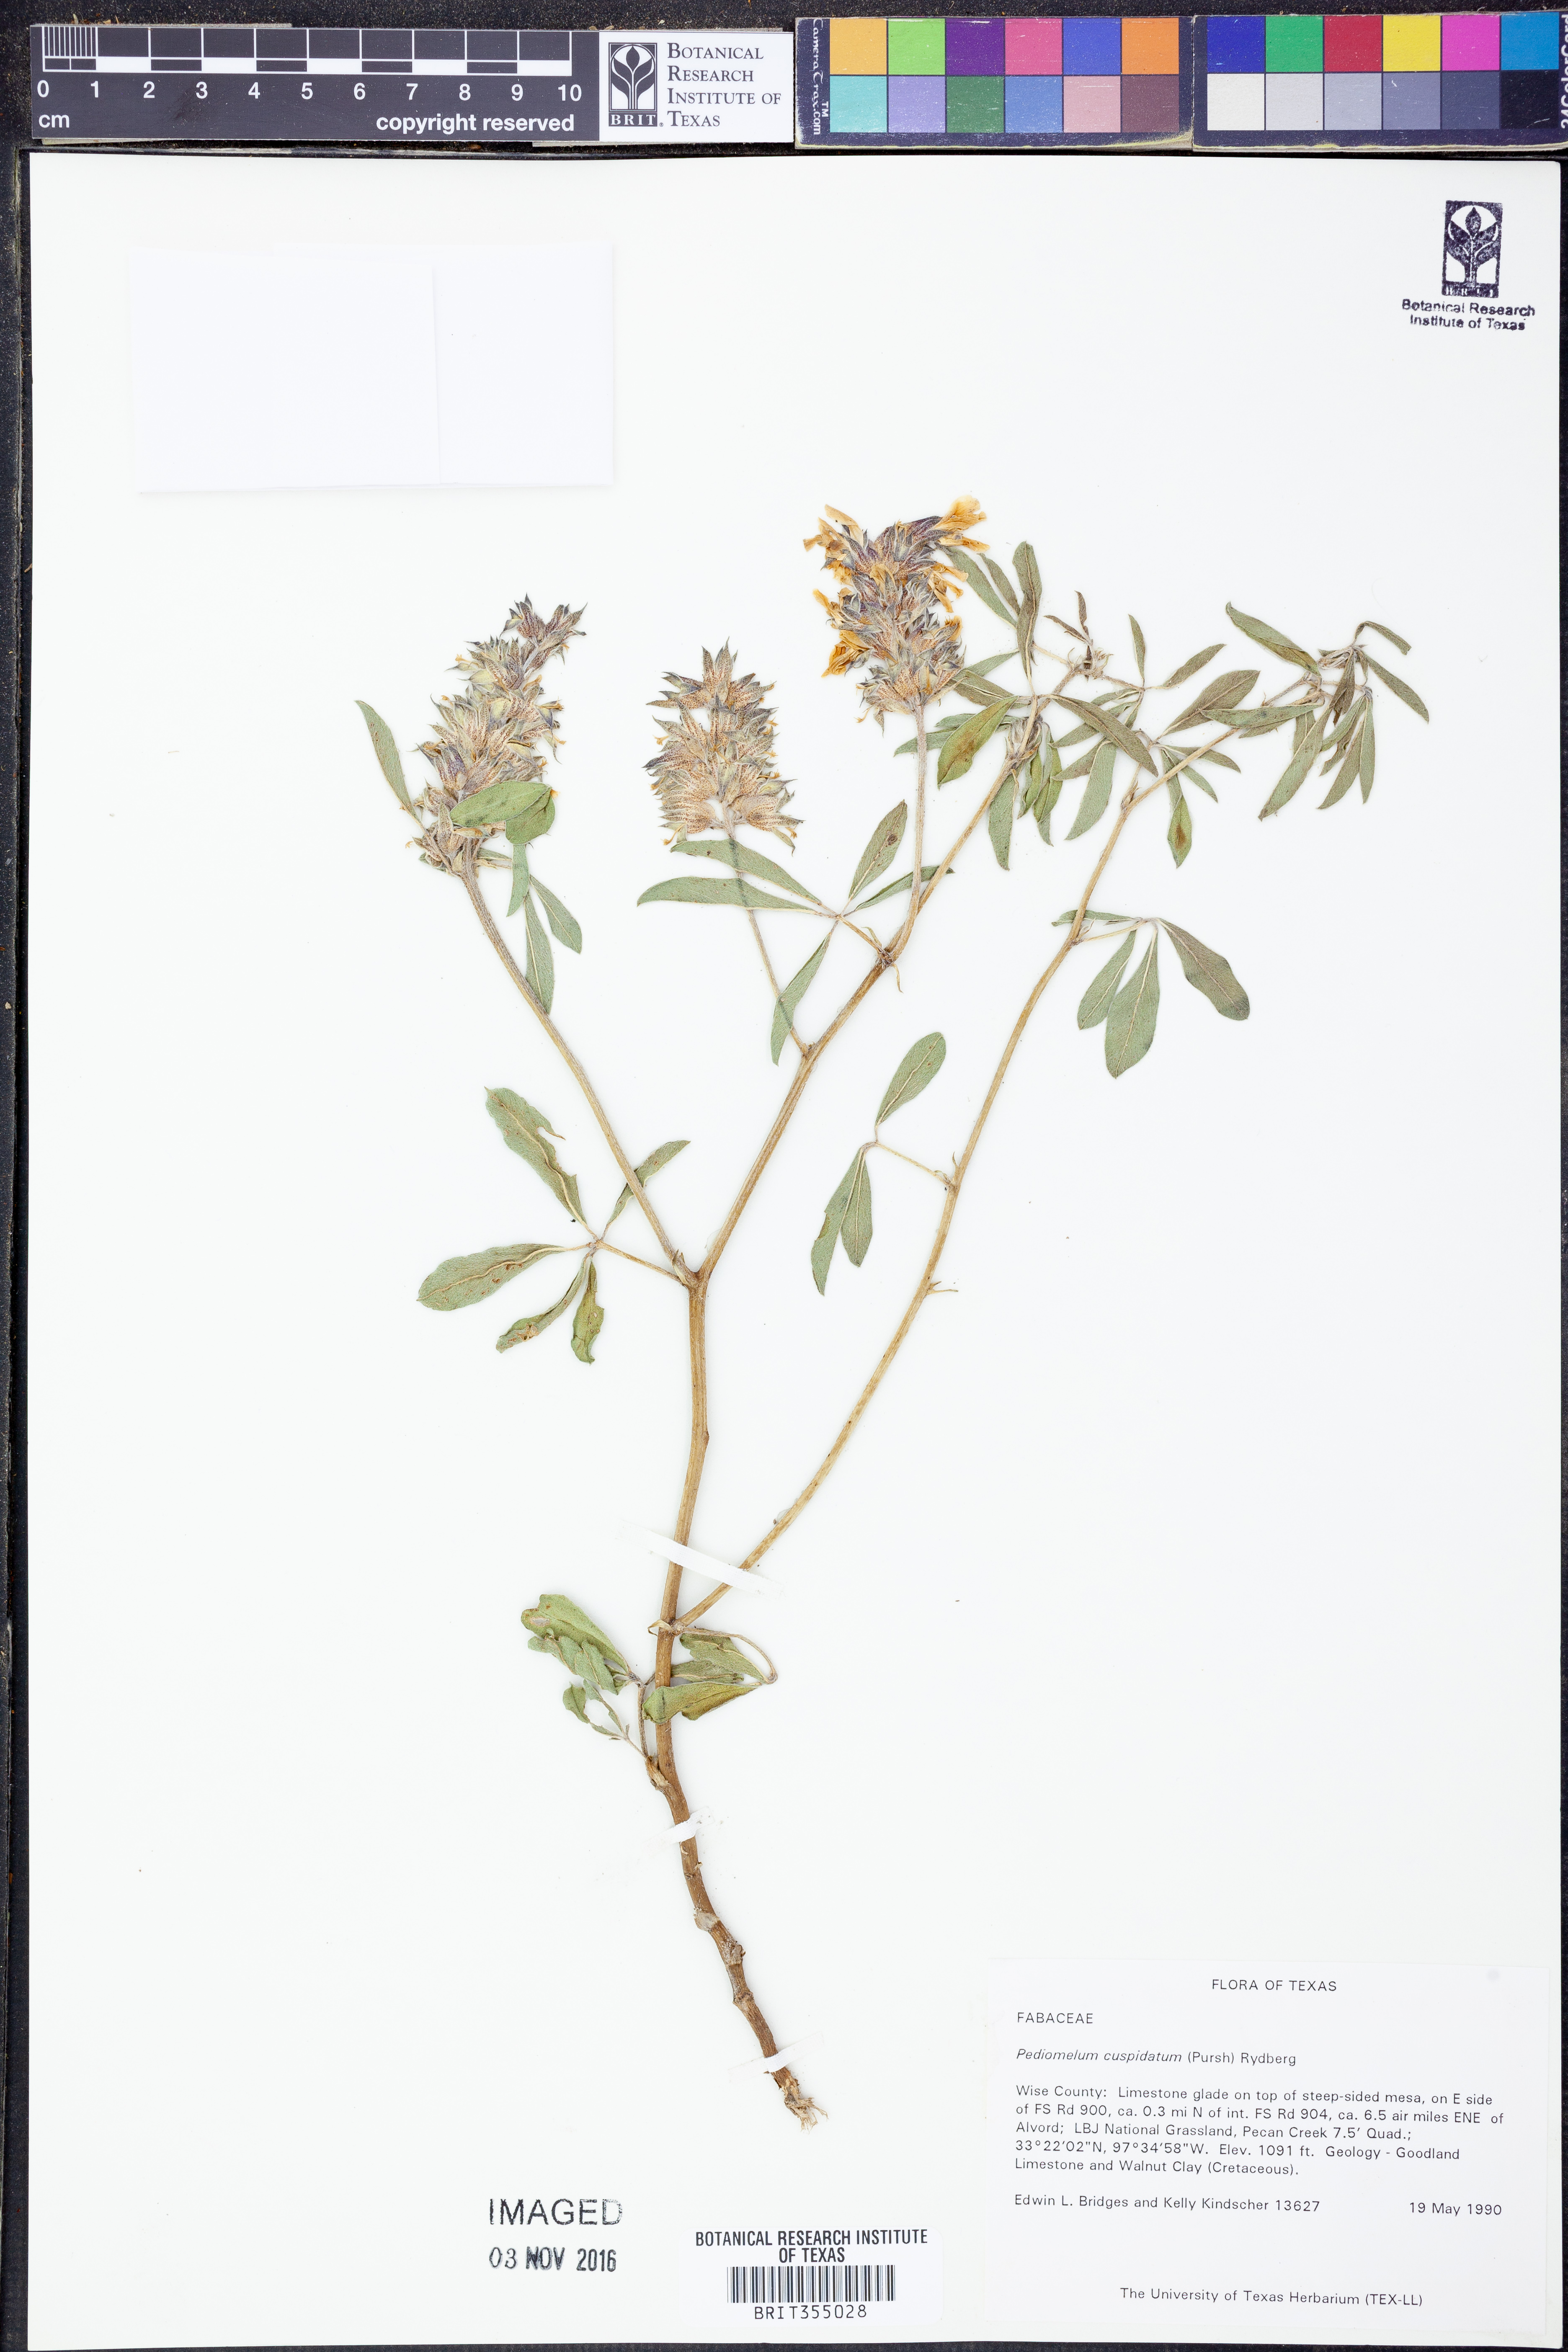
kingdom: Plantae
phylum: Tracheophyta
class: Magnoliopsida
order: Fabales
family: Fabaceae
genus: Pediomelum
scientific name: Pediomelum cuspidatum
